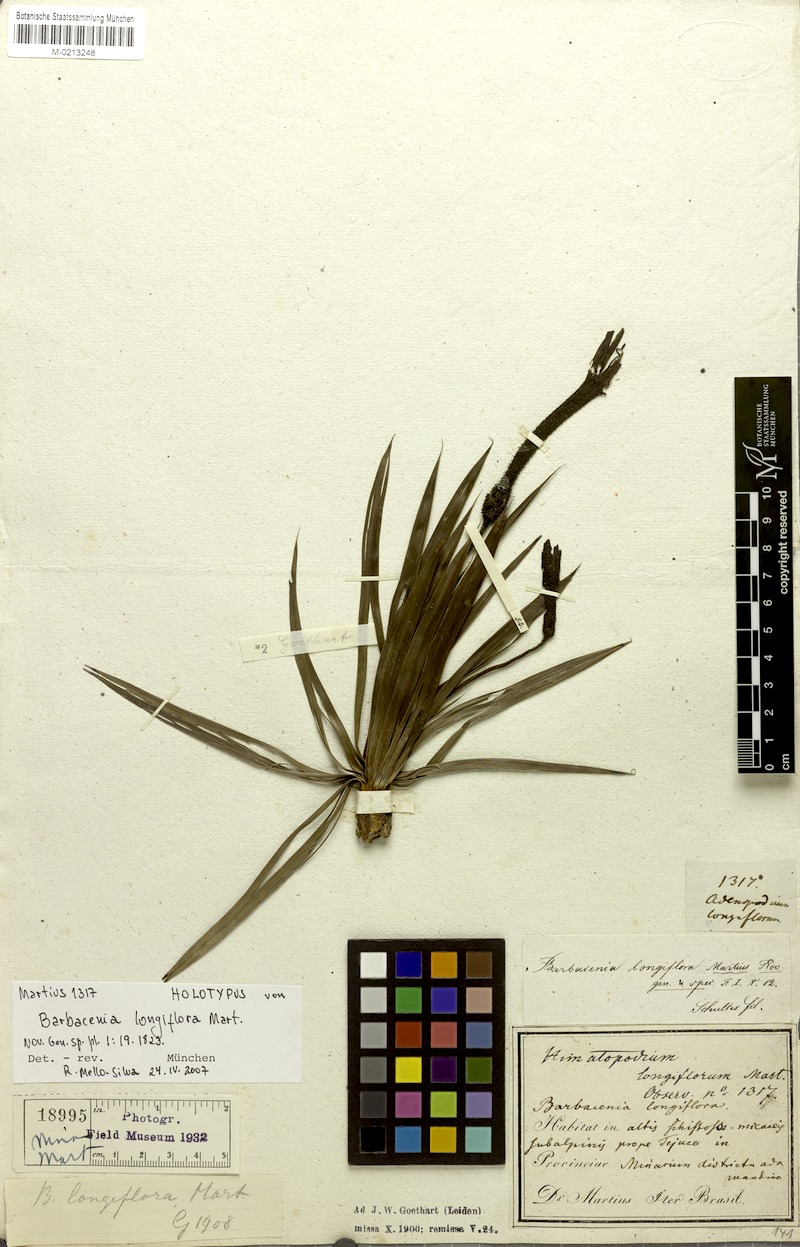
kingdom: Plantae
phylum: Tracheophyta
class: Liliopsida
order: Pandanales
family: Velloziaceae
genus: Barbacenia
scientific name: Barbacenia longiflora
